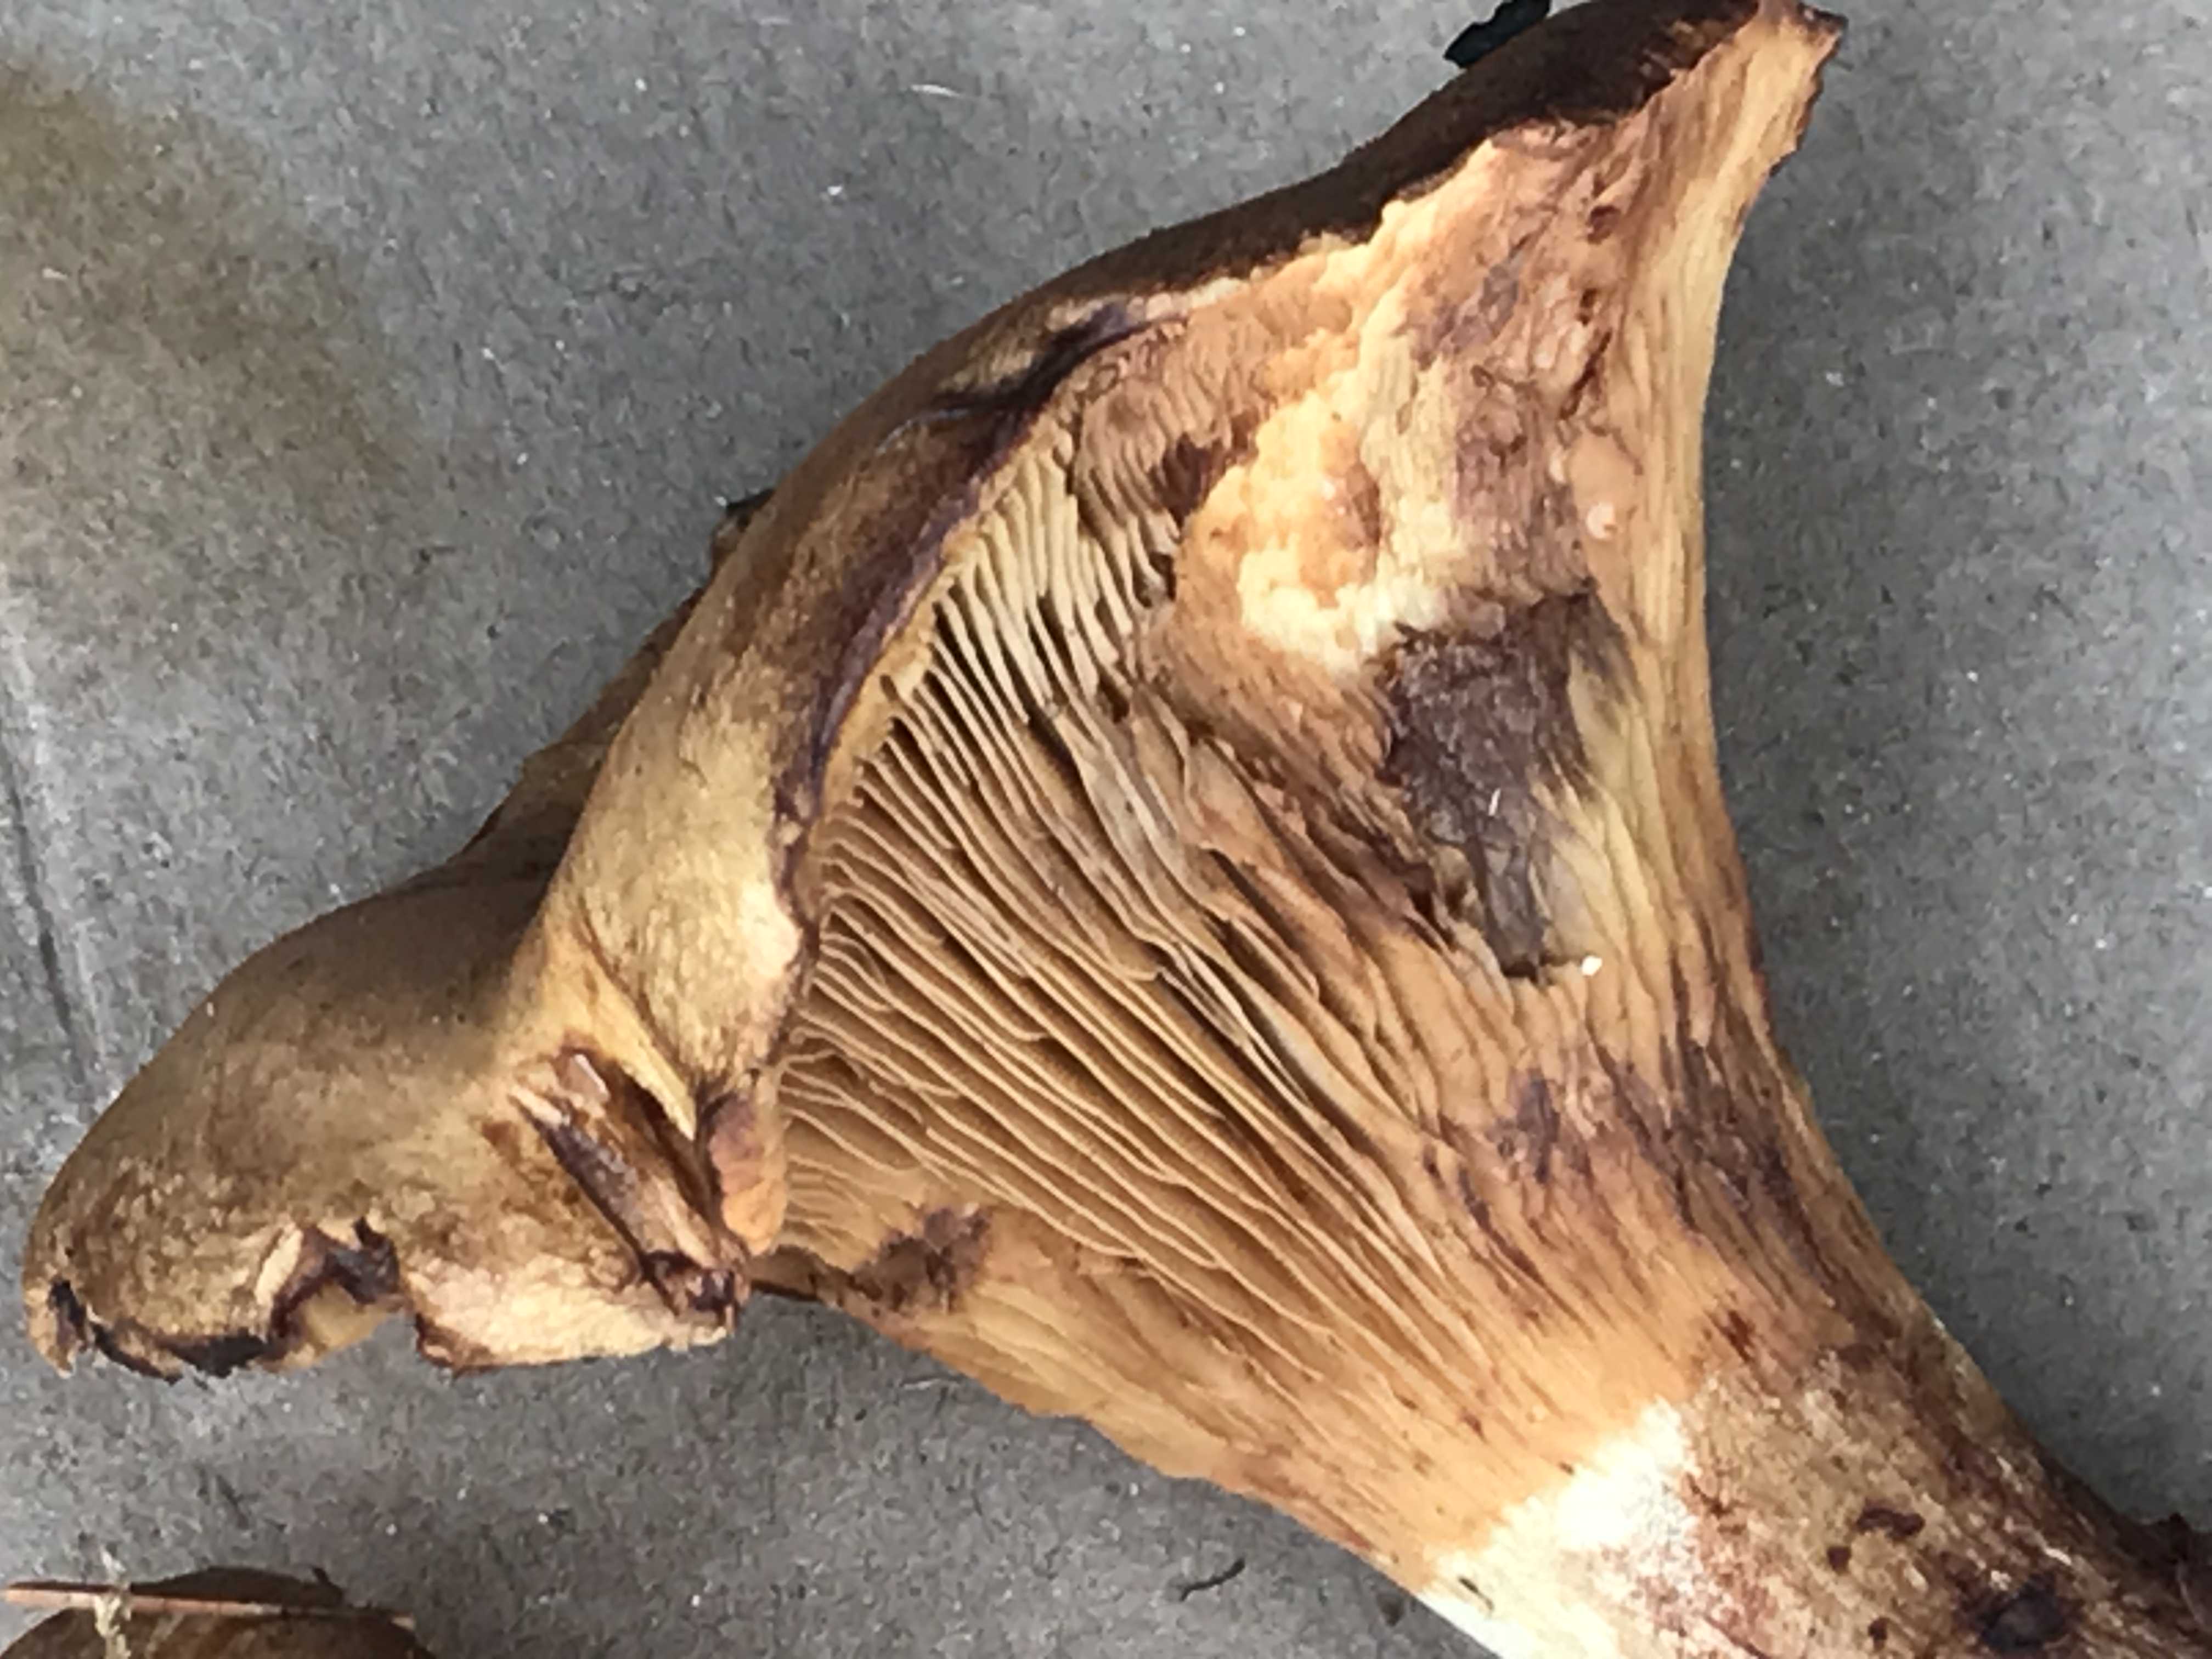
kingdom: Fungi
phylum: Basidiomycota
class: Agaricomycetes
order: Boletales
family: Paxillaceae
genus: Paxillus
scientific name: Paxillus
